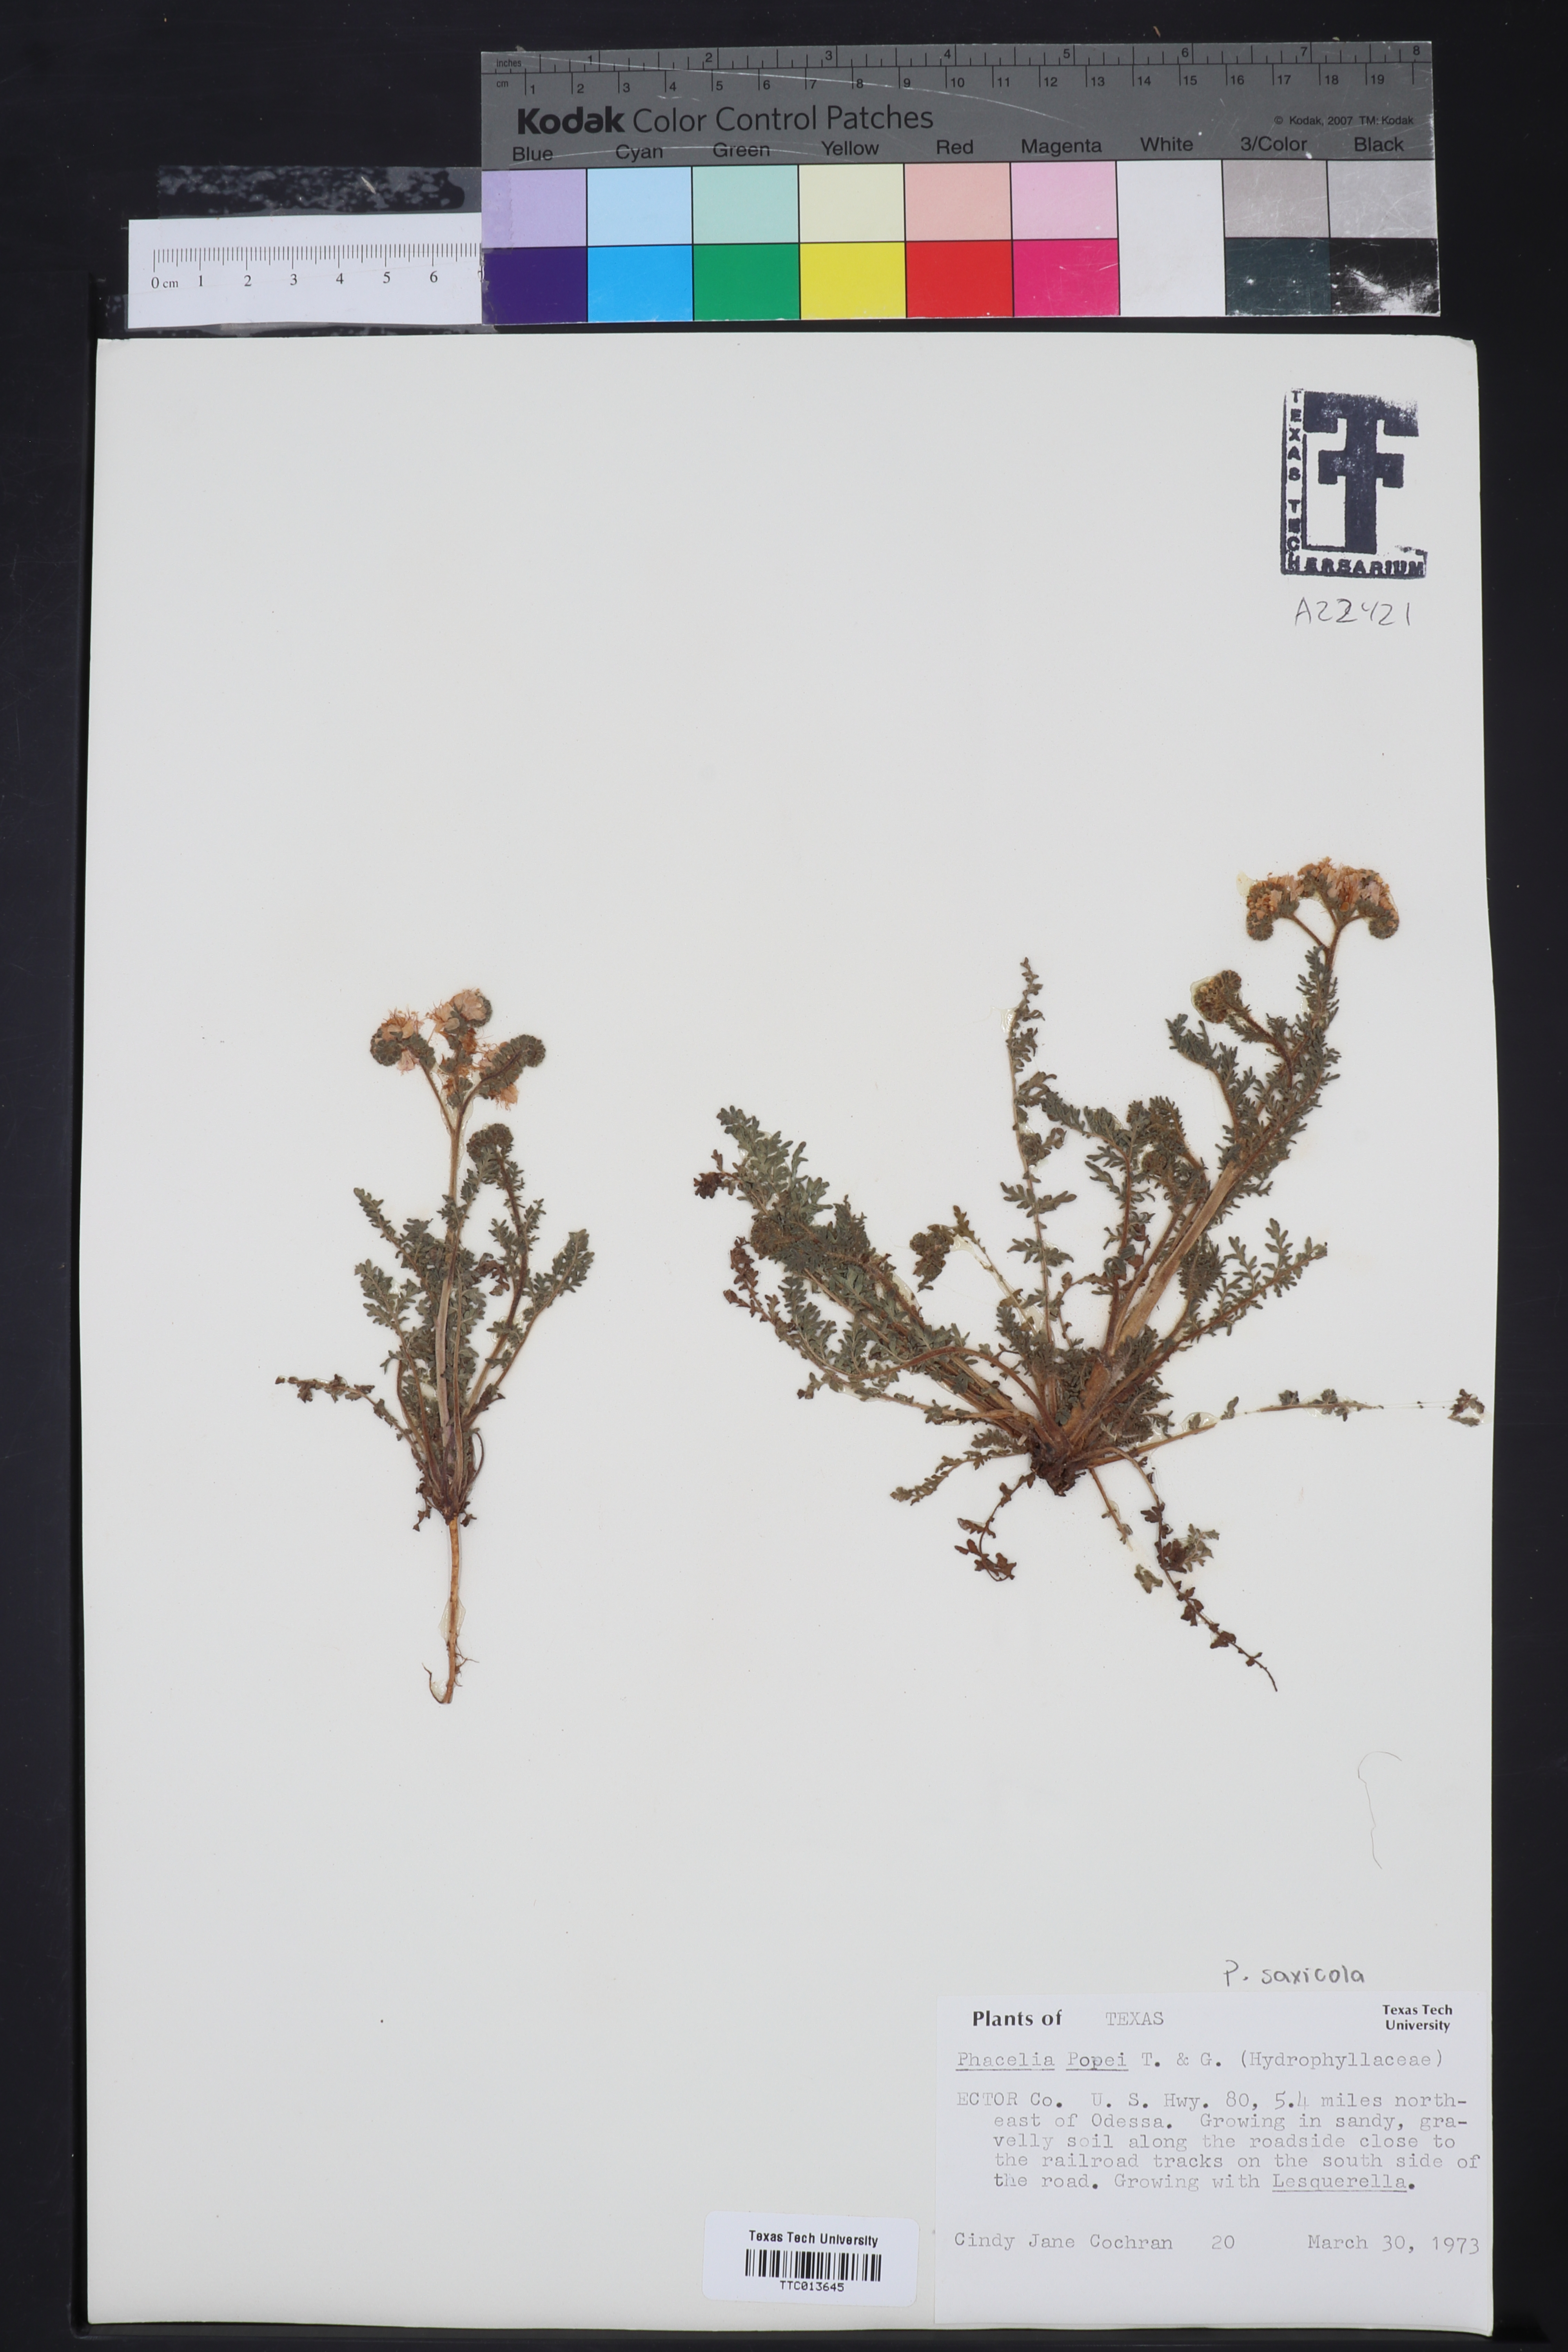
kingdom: Plantae
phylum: Tracheophyta
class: Magnoliopsida
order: Boraginales
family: Hydrophyllaceae
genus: Phacelia
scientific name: Phacelia popei
